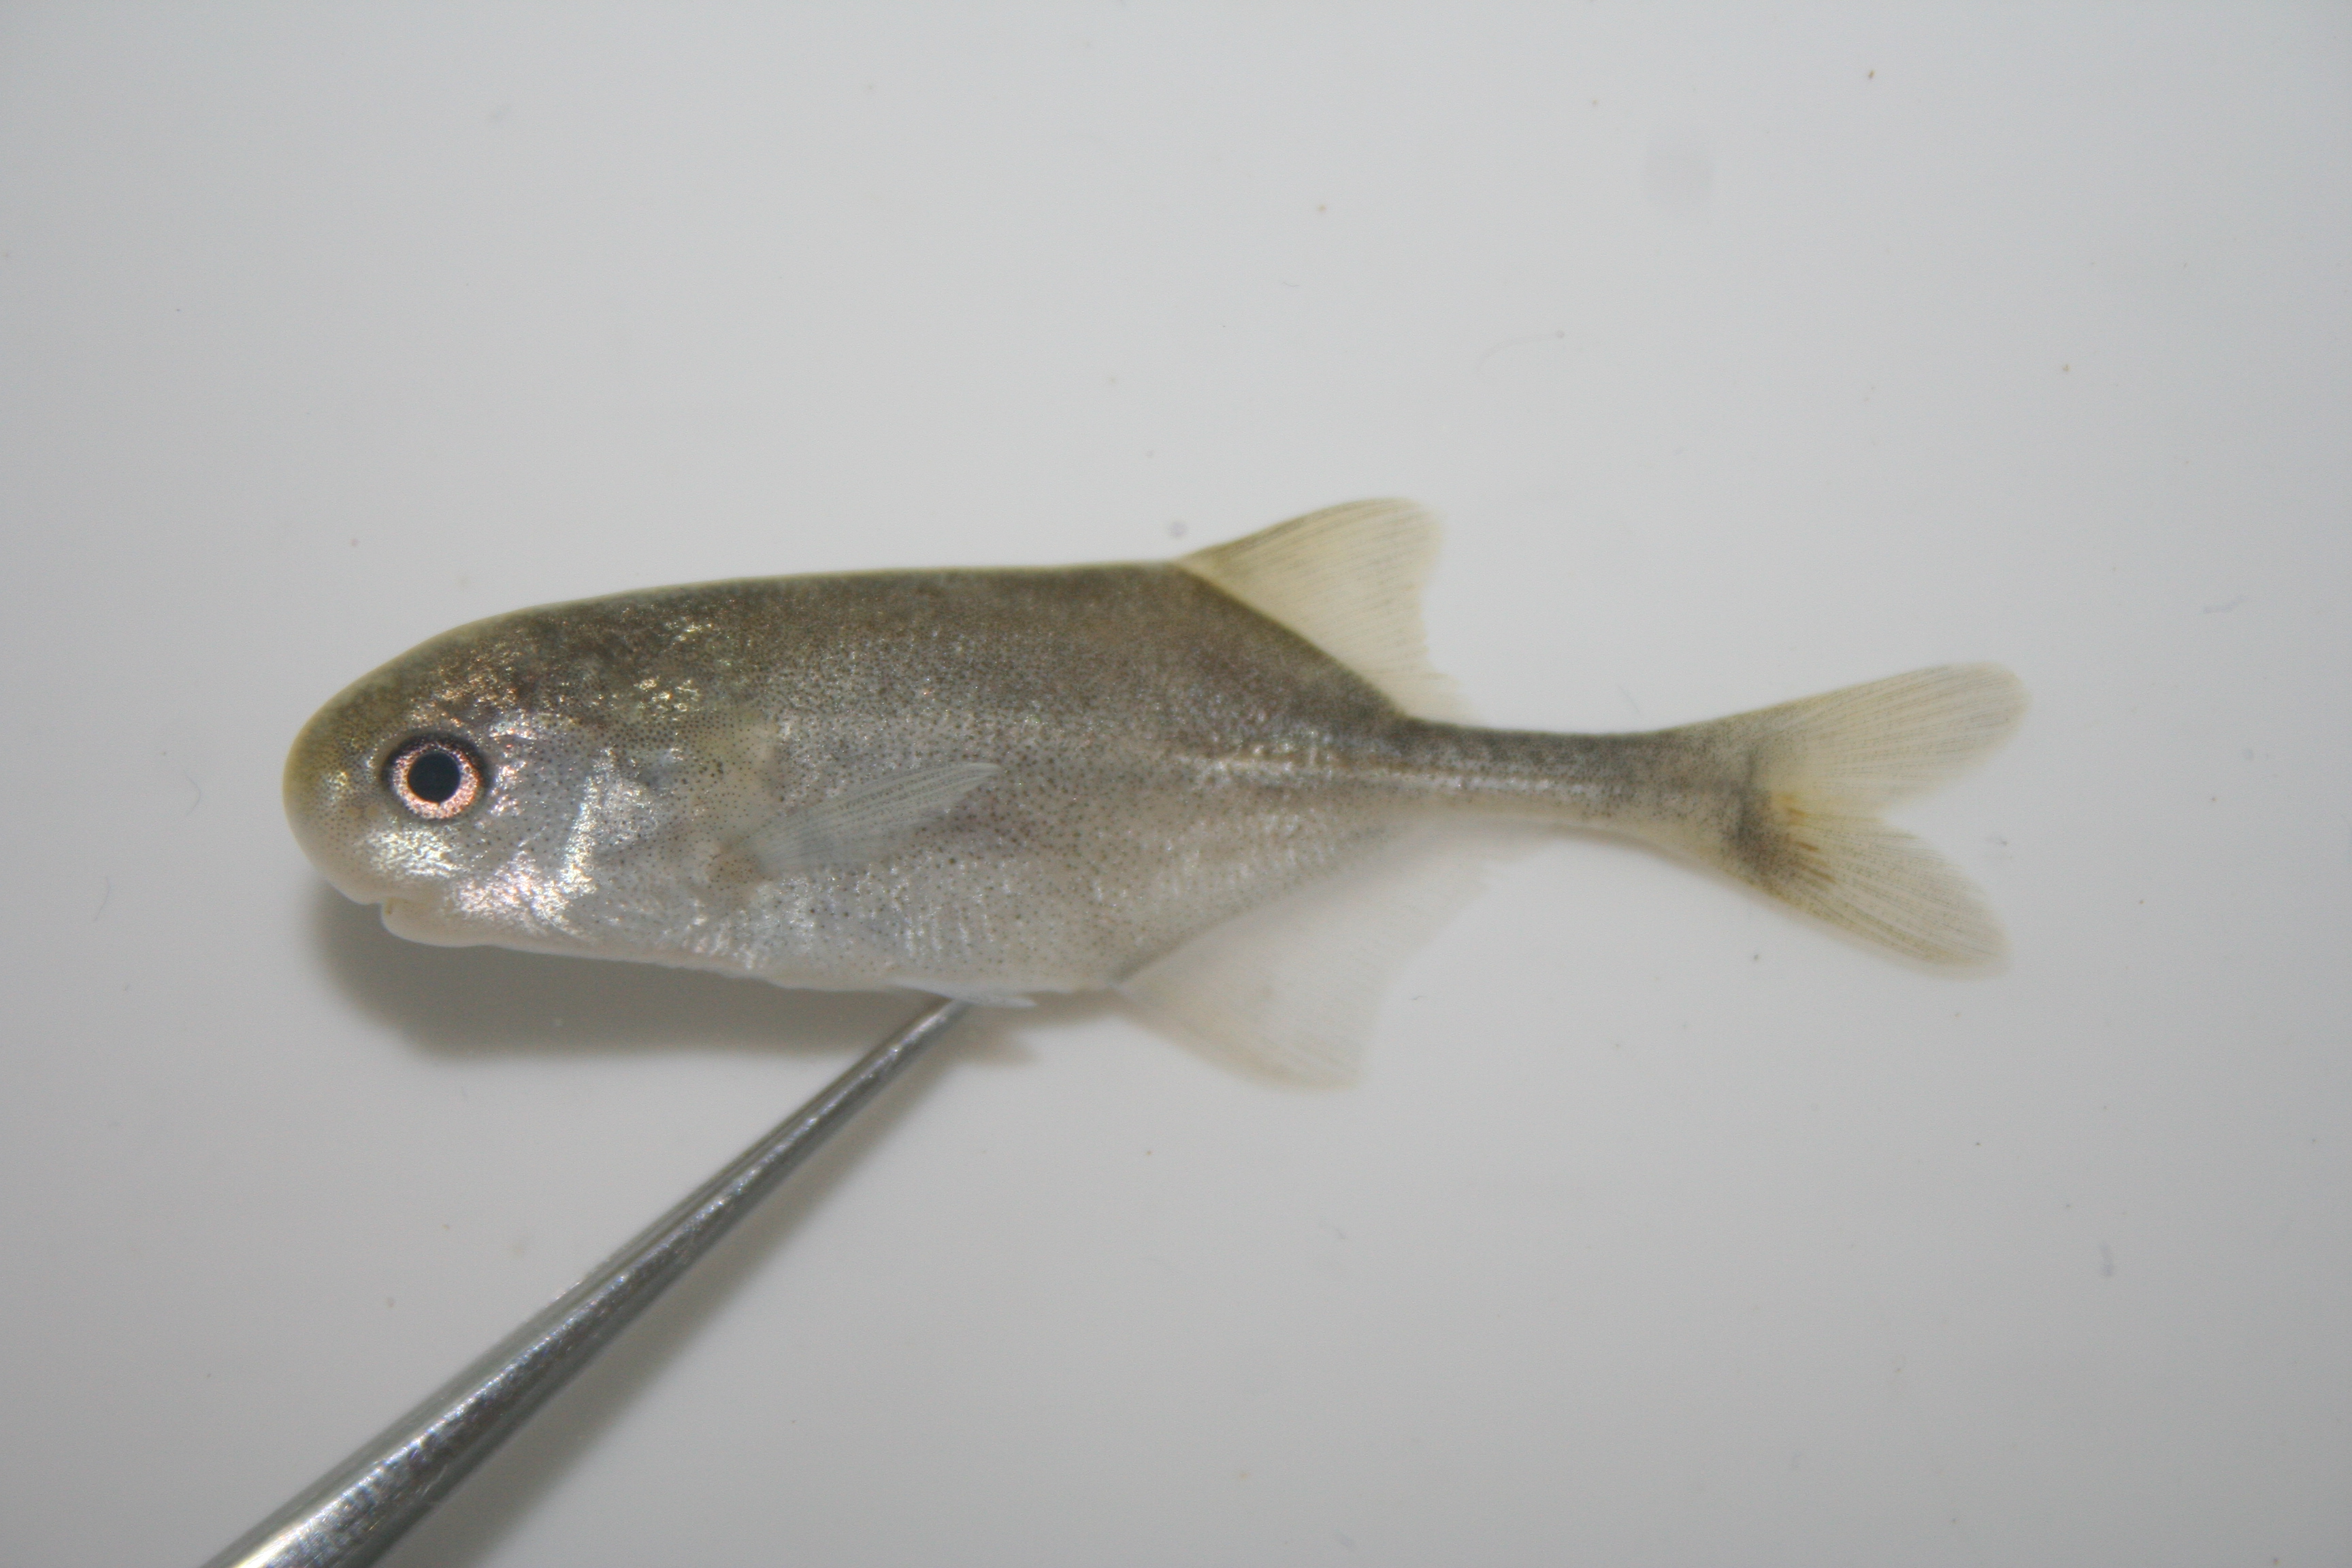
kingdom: Animalia
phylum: Chordata
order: Osteoglossiformes
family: Mormyridae
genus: Petrocephalus
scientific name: Petrocephalus
